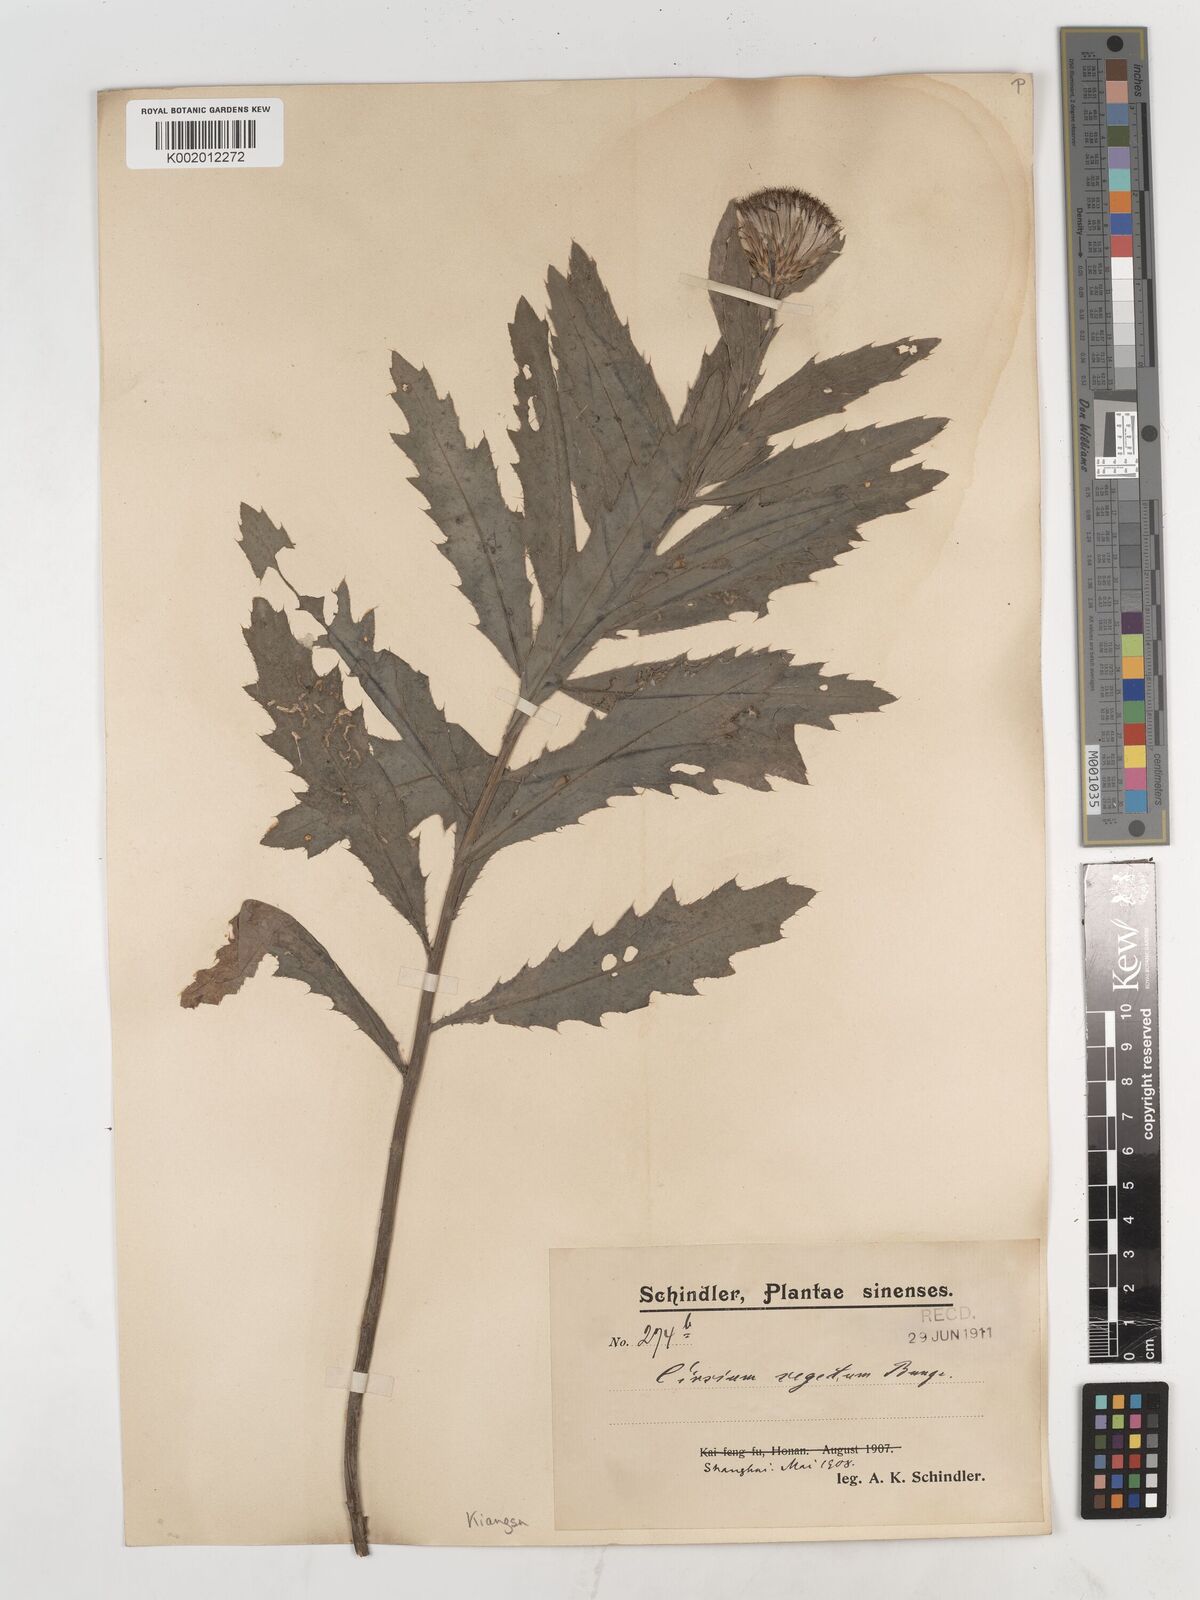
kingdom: Plantae
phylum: Tracheophyta
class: Magnoliopsida
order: Asterales
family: Asteraceae
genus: Cirsium
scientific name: Cirsium arvense
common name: Creeping thistle
